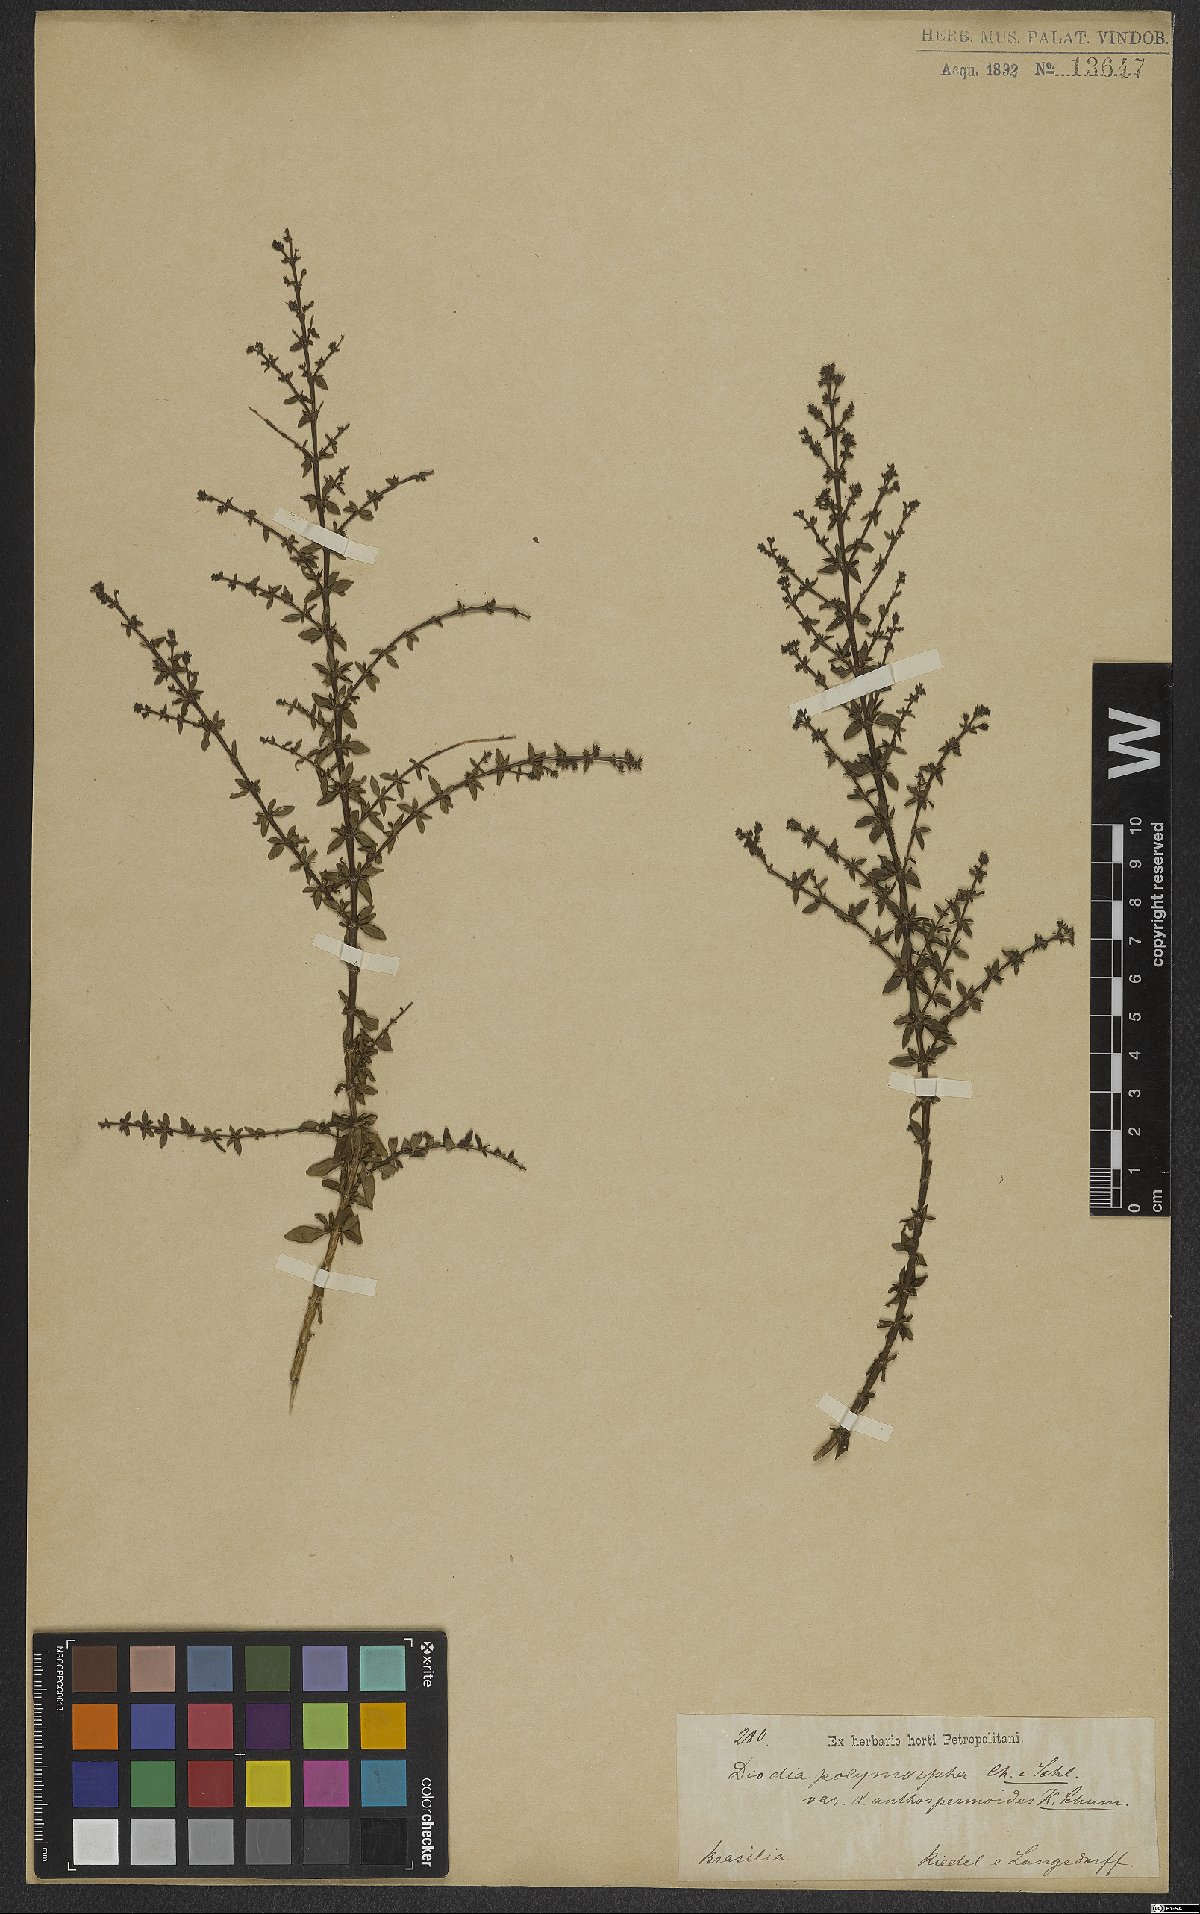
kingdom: Plantae
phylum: Tracheophyta
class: Magnoliopsida
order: Gentianales
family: Rubiaceae
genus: Galianthe
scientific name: Galianthe brasiliensis
